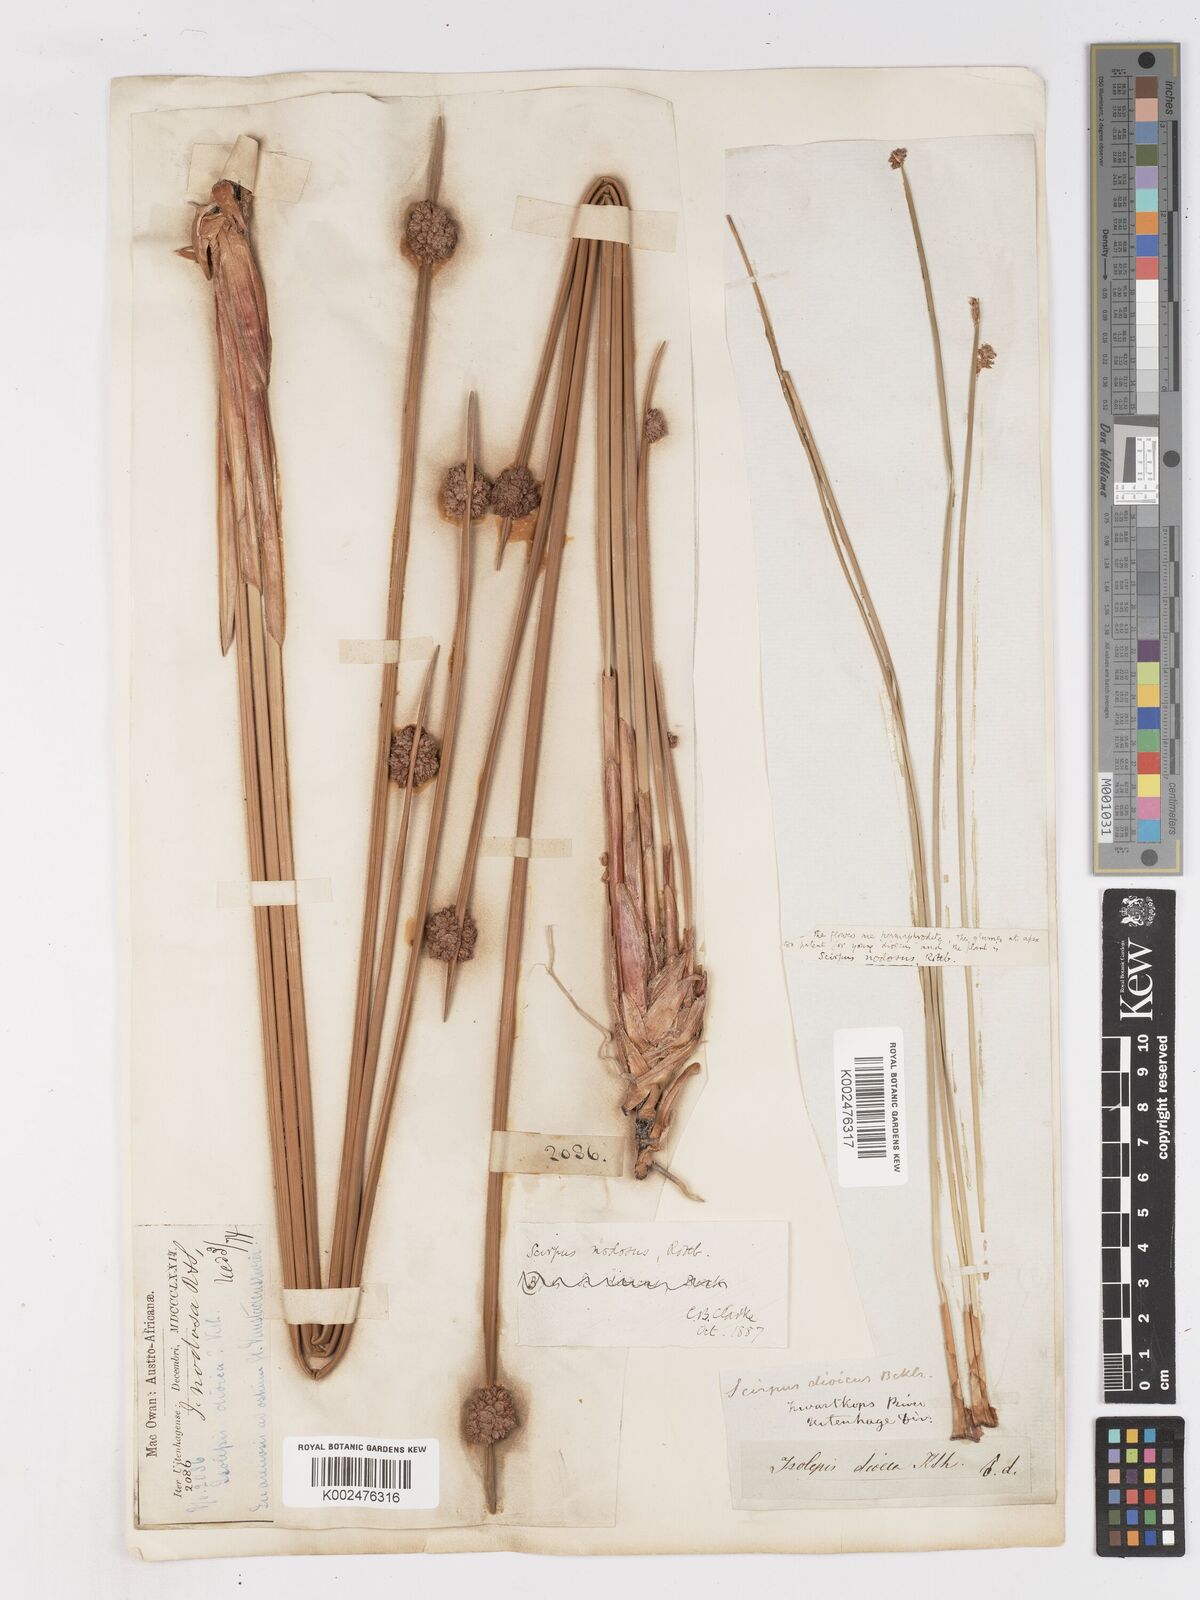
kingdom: Plantae
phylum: Tracheophyta
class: Liliopsida
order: Poales
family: Cyperaceae
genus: Ficinia
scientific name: Ficinia nodosa
